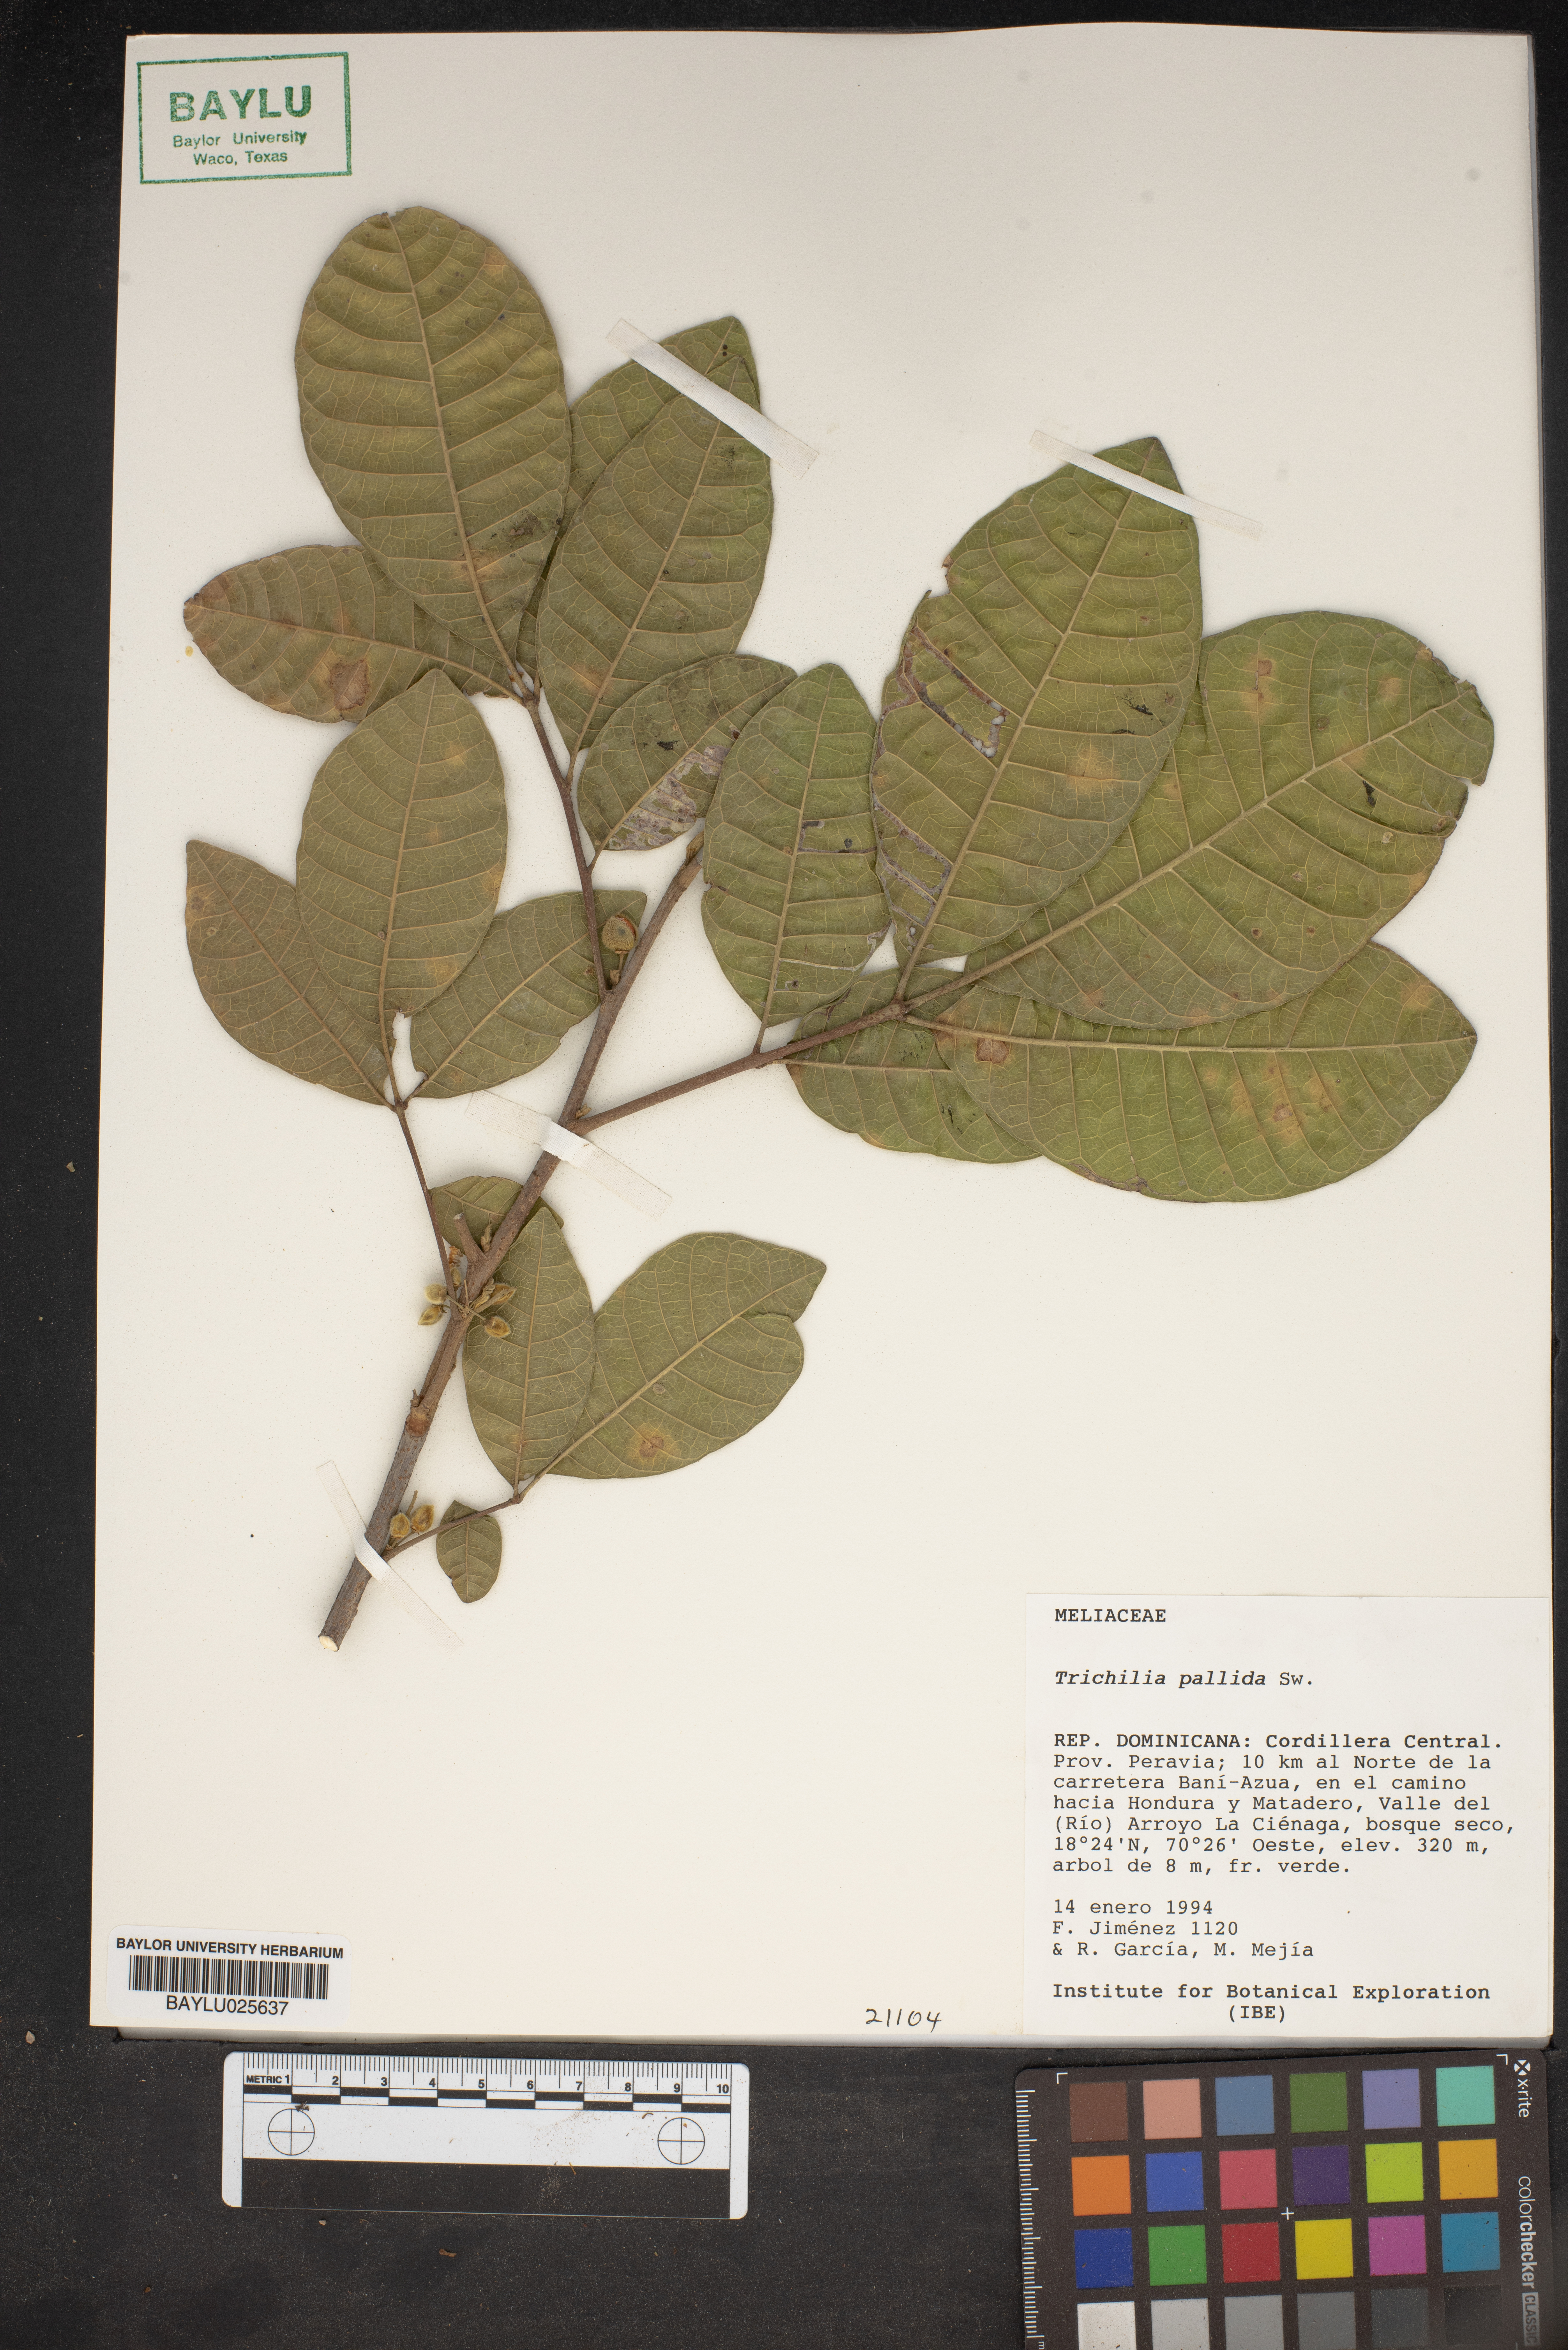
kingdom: Plantae
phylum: Tracheophyta
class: Magnoliopsida
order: Sapindales
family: Meliaceae
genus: Trichilia
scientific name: Trichilia pallida
